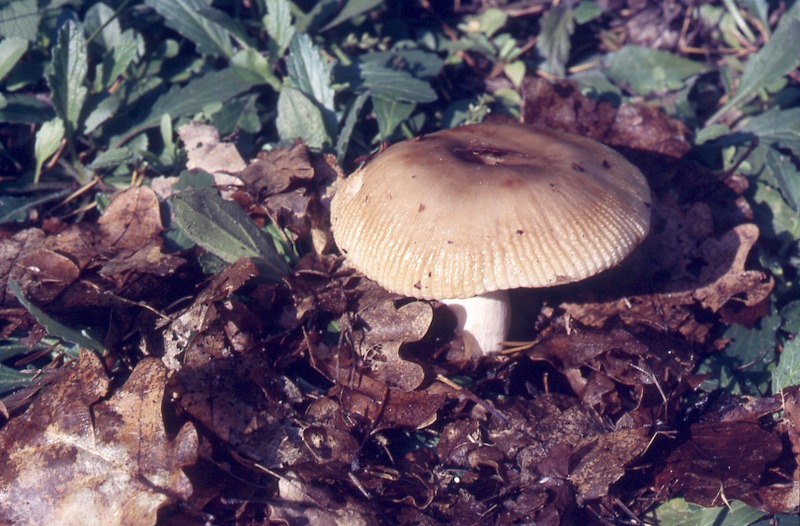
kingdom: Fungi
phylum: Basidiomycota
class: Agaricomycetes
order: Russulales
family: Russulaceae
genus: Russula
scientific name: Russula pectinatoides
